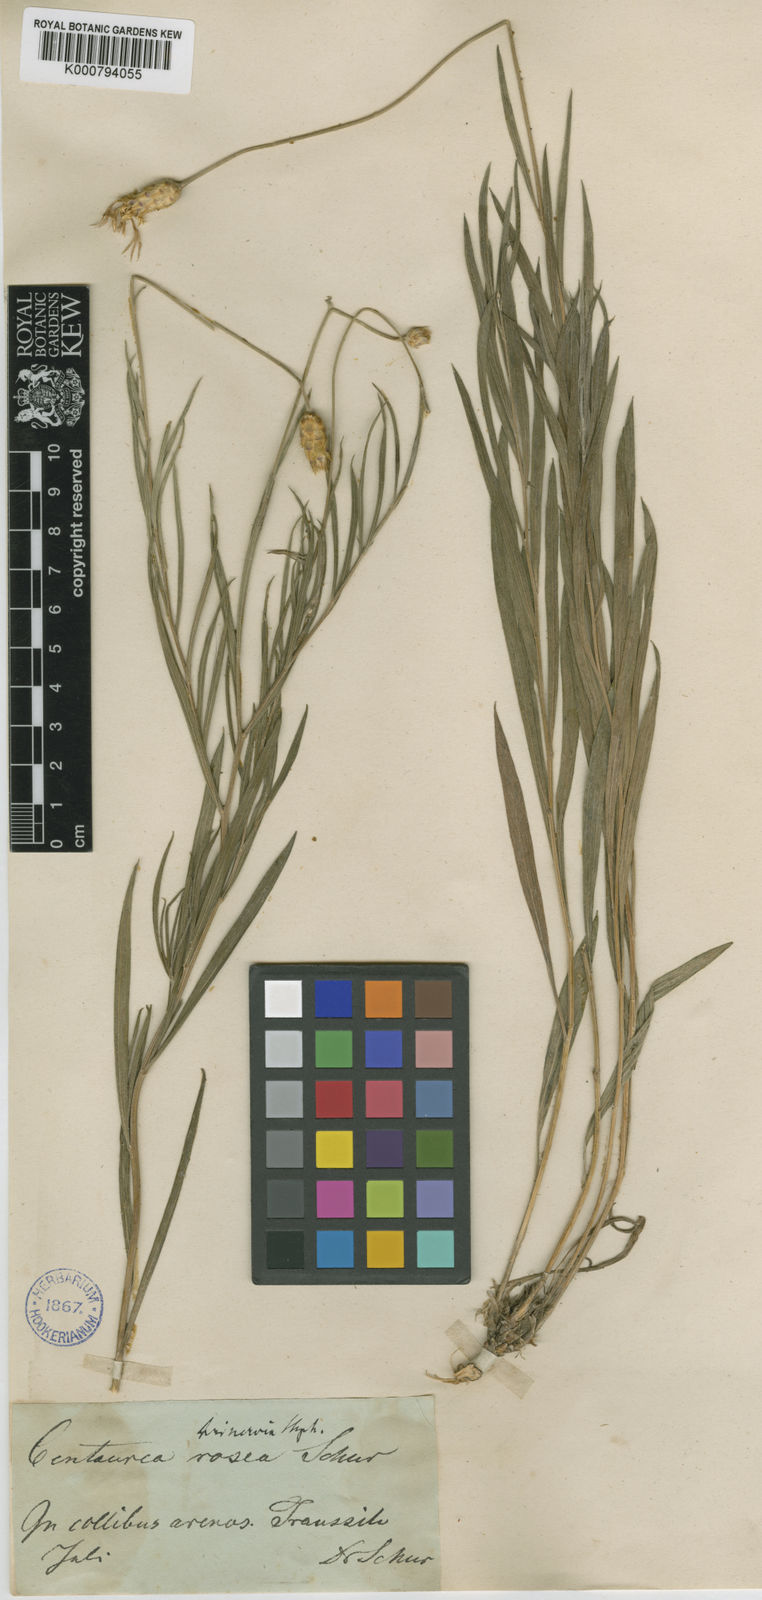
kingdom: Plantae
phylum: Tracheophyta
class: Magnoliopsida
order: Asterales
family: Asteraceae
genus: Psephellus
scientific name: Psephellus trinervius
